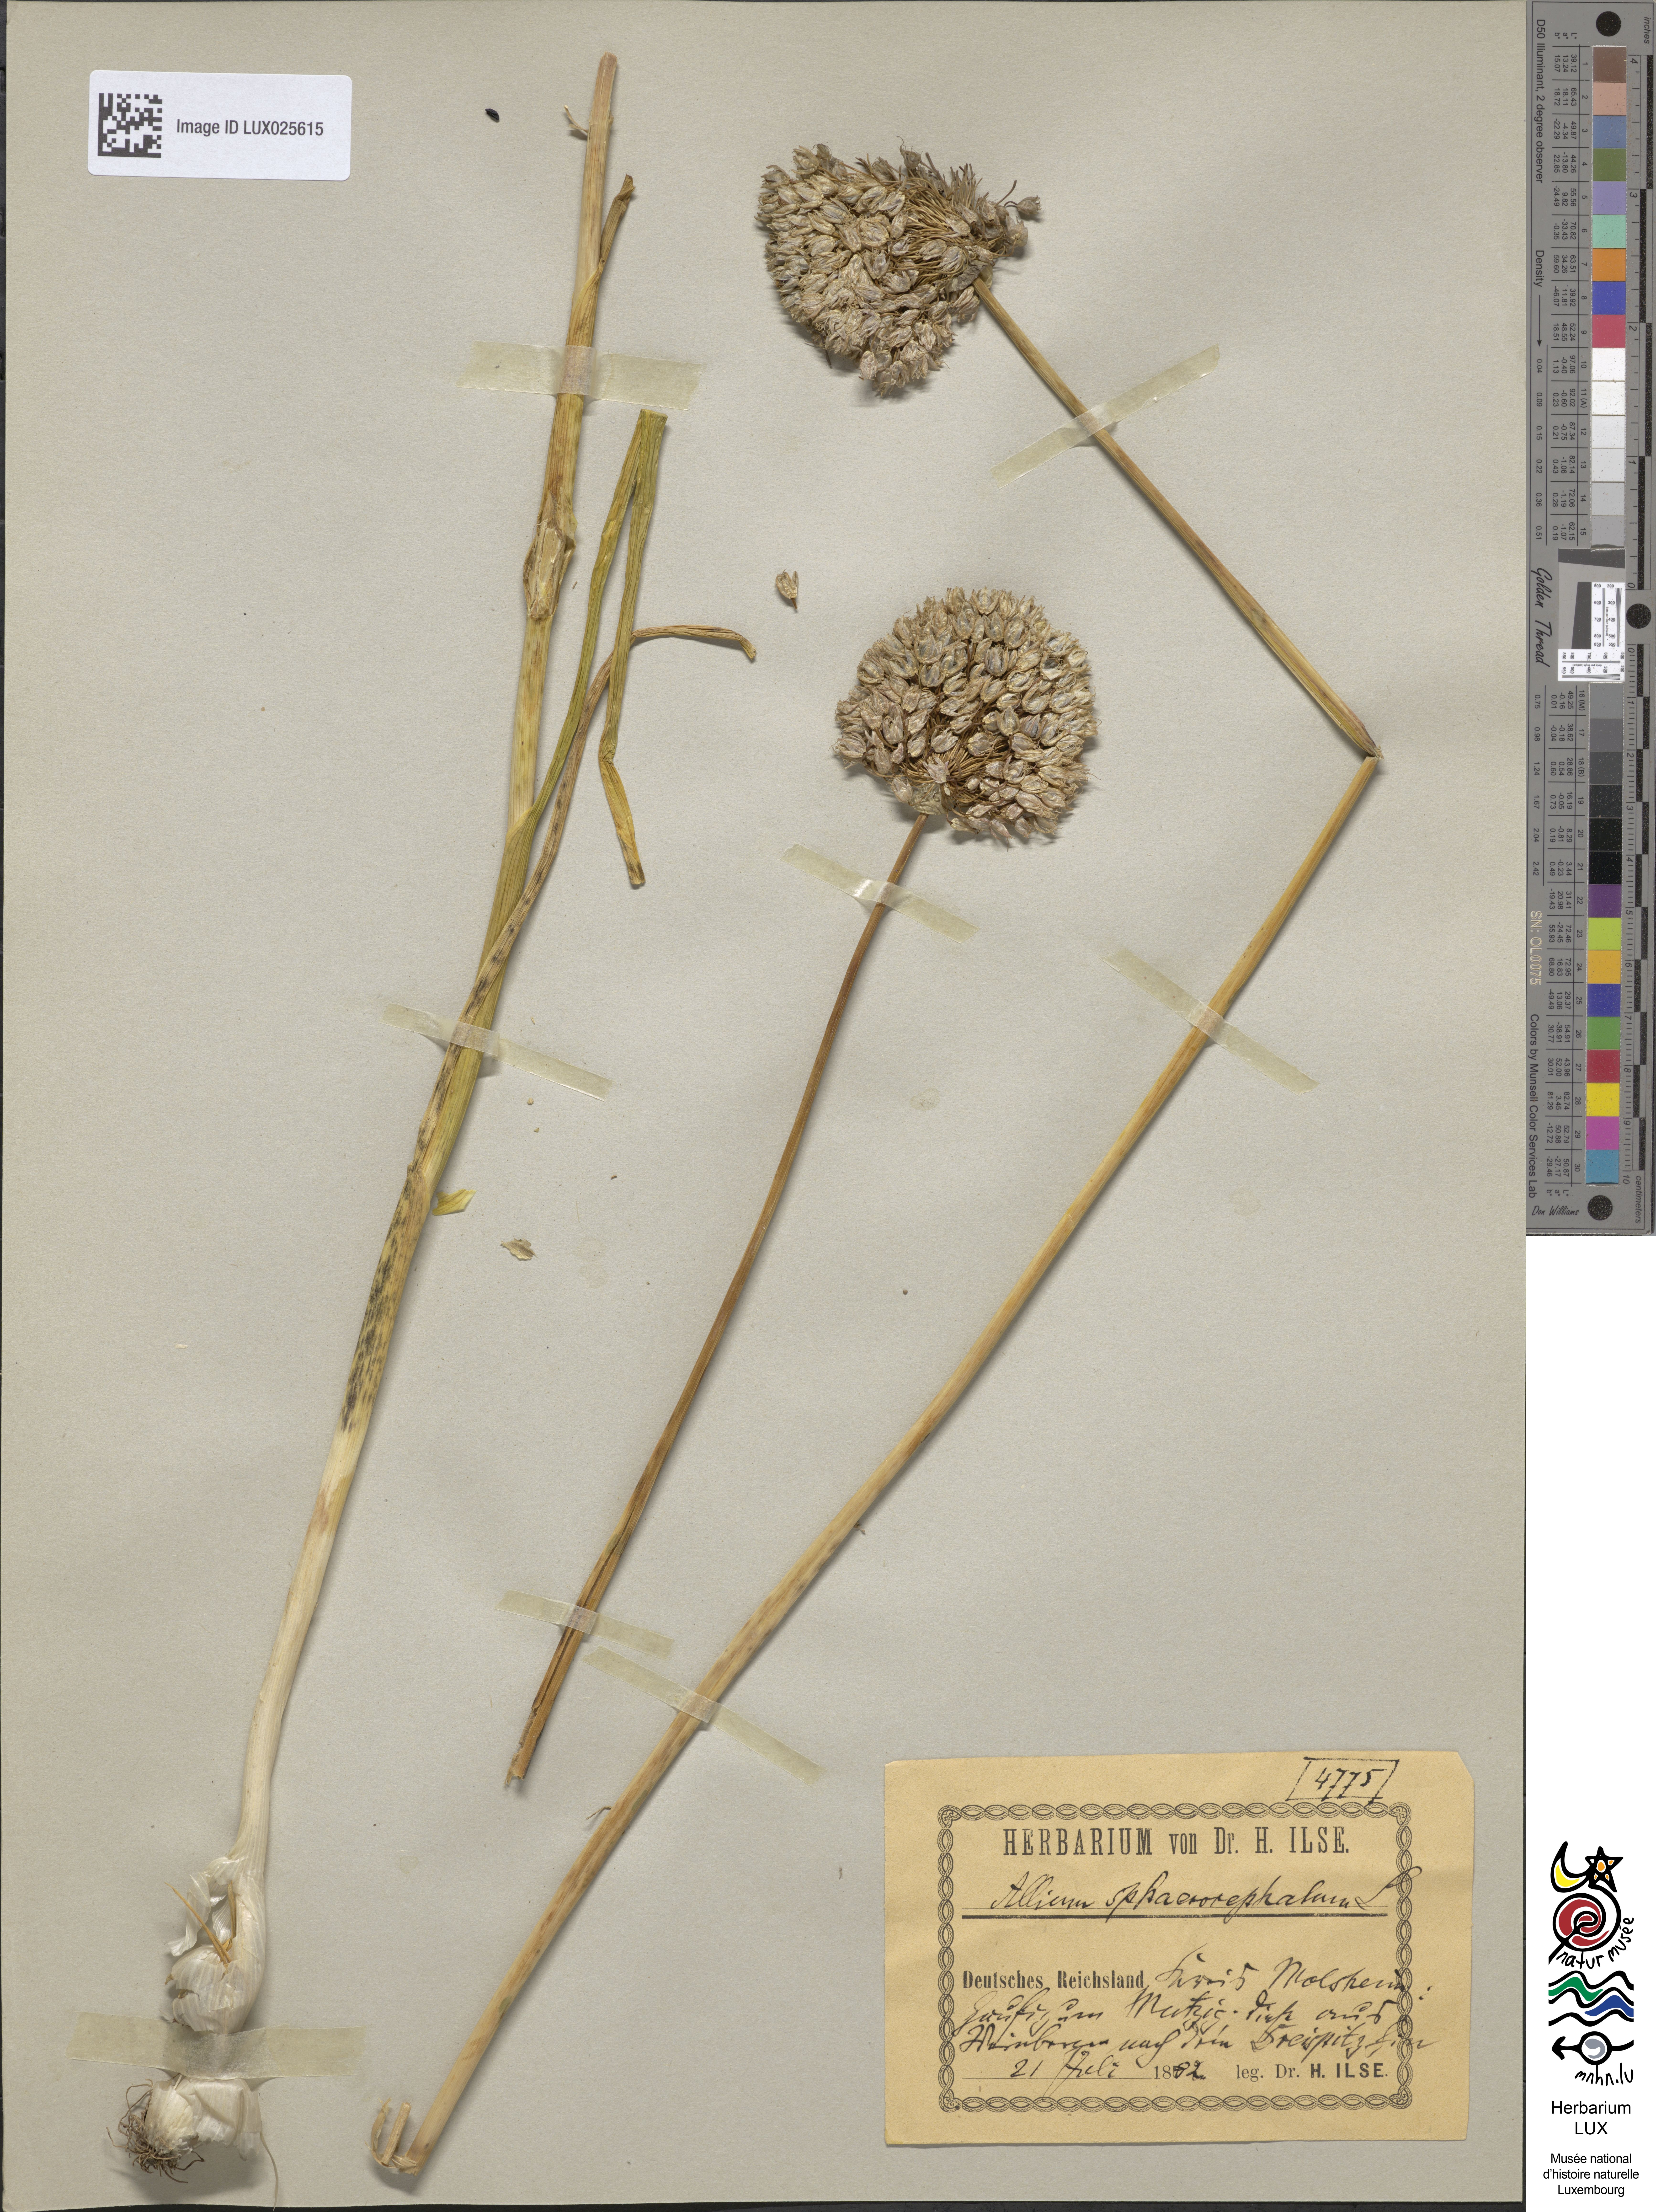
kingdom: Plantae
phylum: Tracheophyta
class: Liliopsida
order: Asparagales
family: Amaryllidaceae
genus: Allium
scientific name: Allium sphaerocephalon
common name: Round-headed leek
